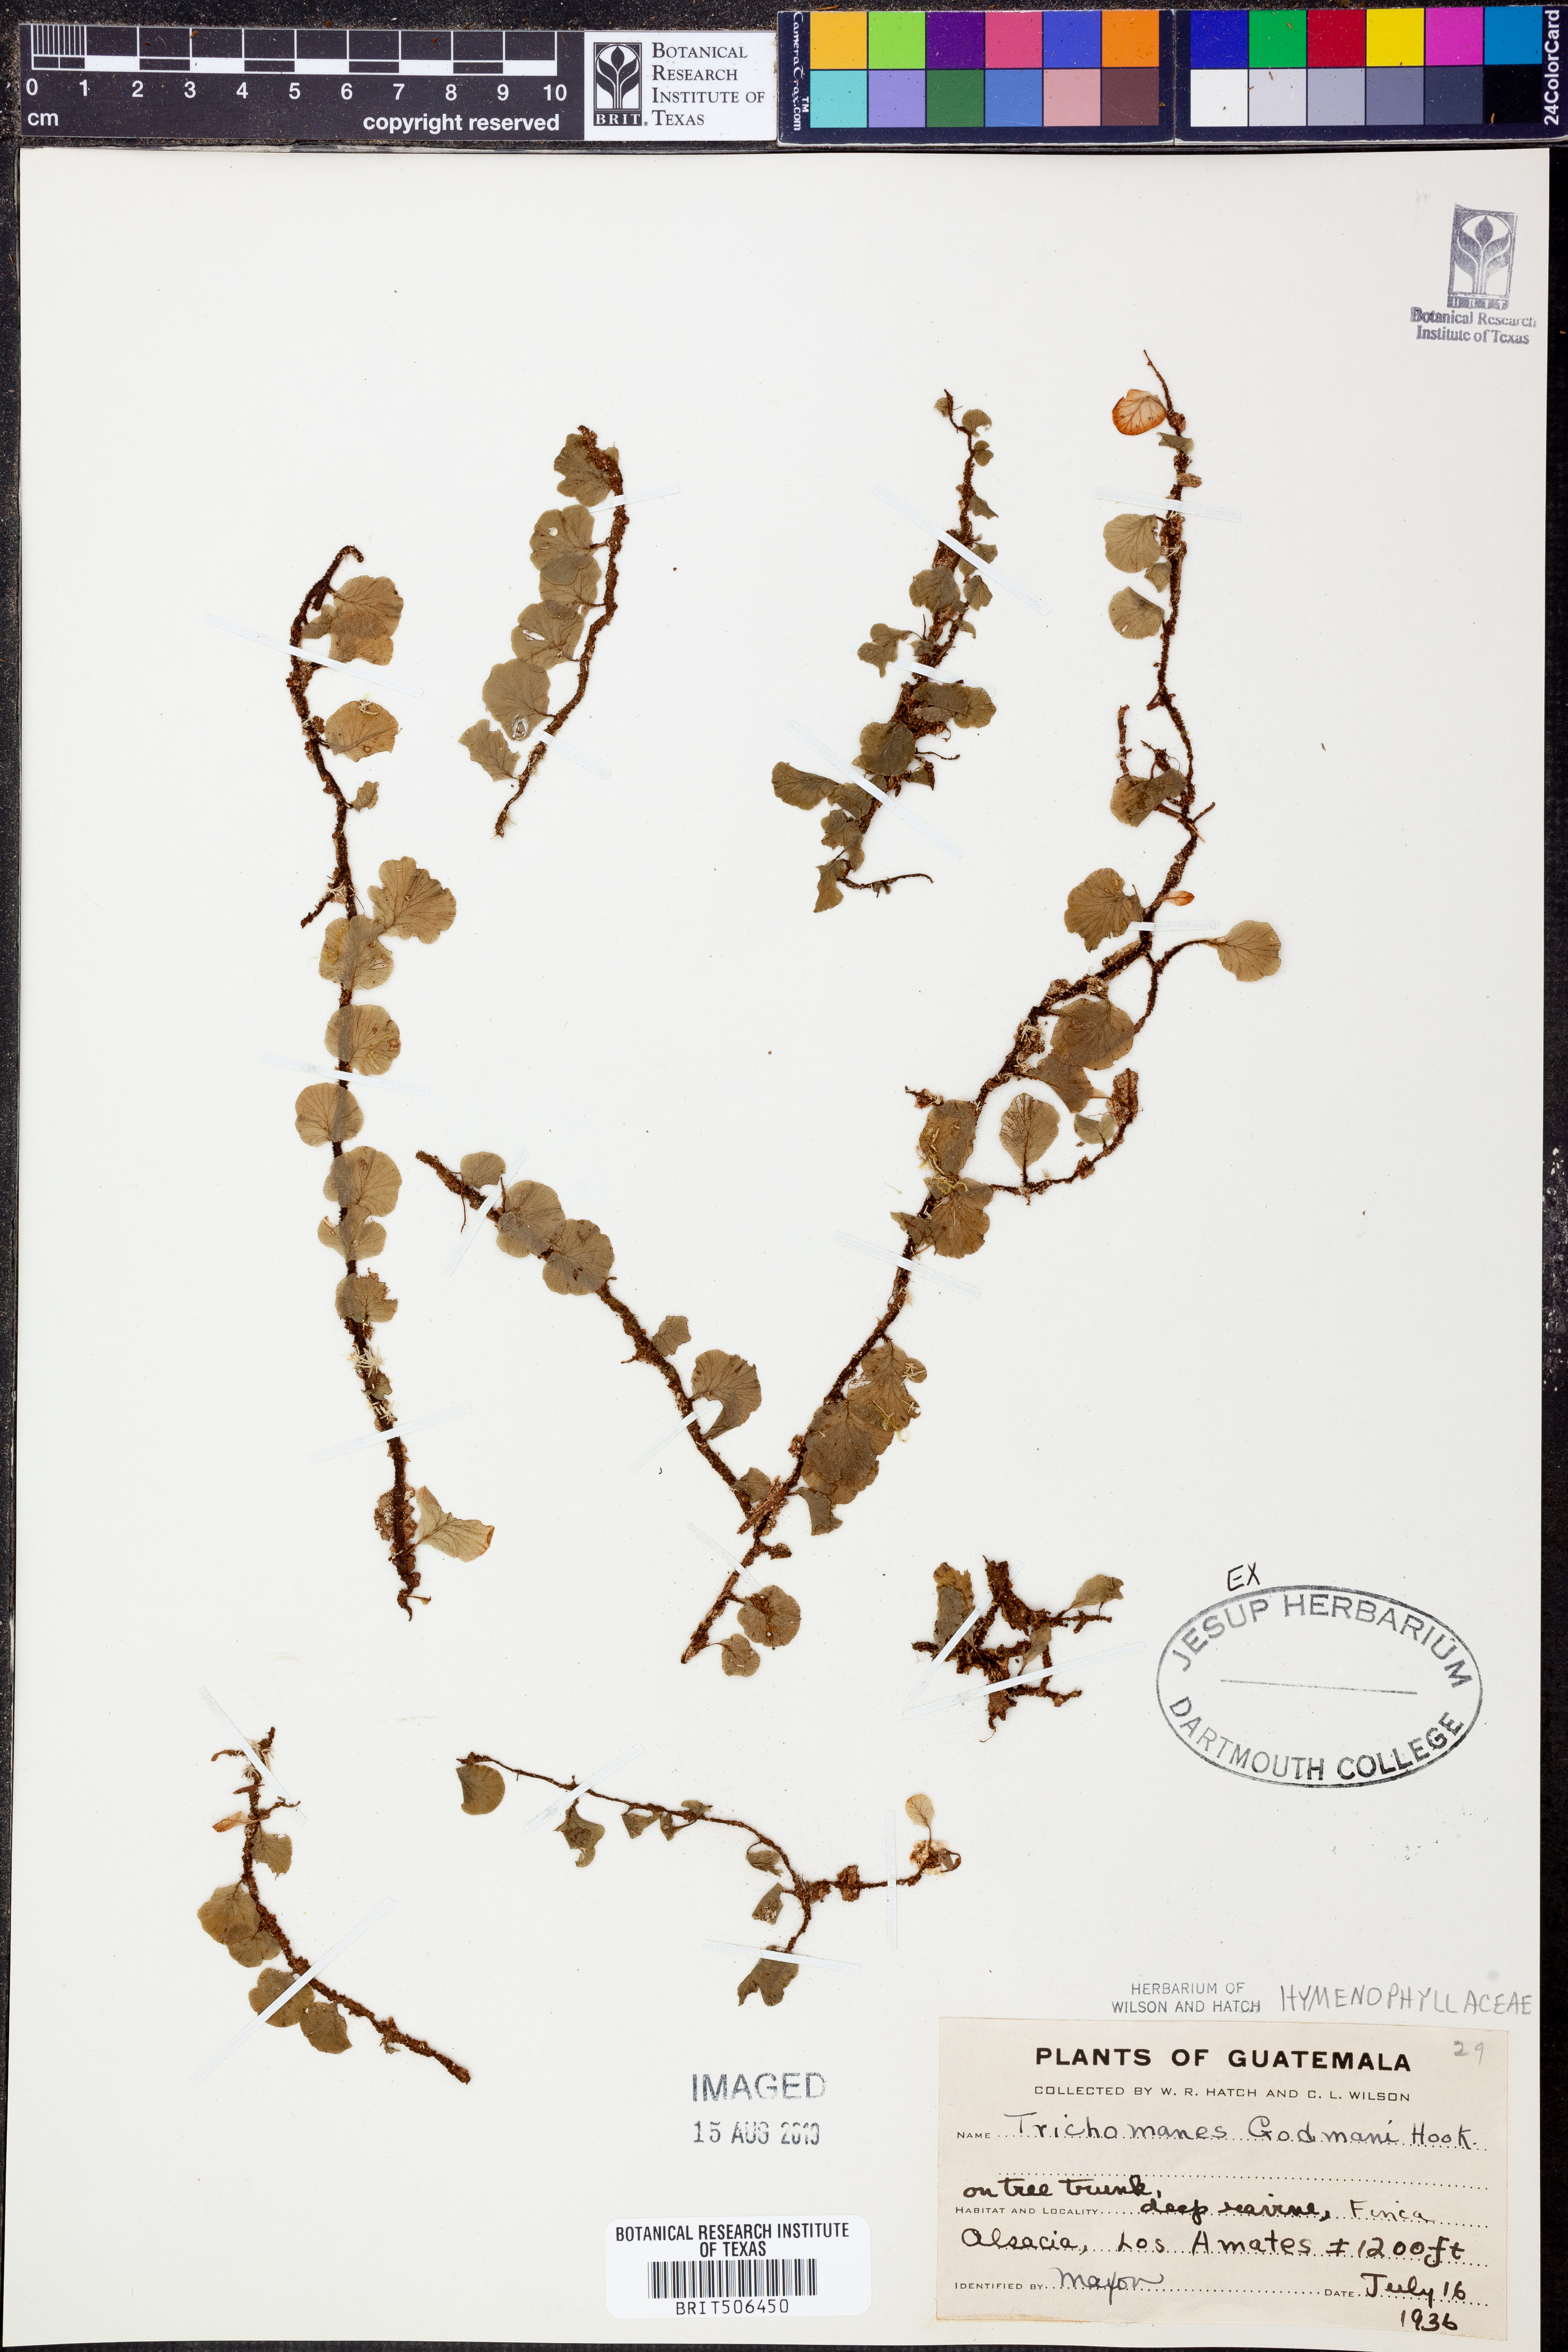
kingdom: Plantae
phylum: Tracheophyta
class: Polypodiopsida
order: Hymenophyllales
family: Hymenophyllaceae
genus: Didymoglossum
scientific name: Didymoglossum godmanii
